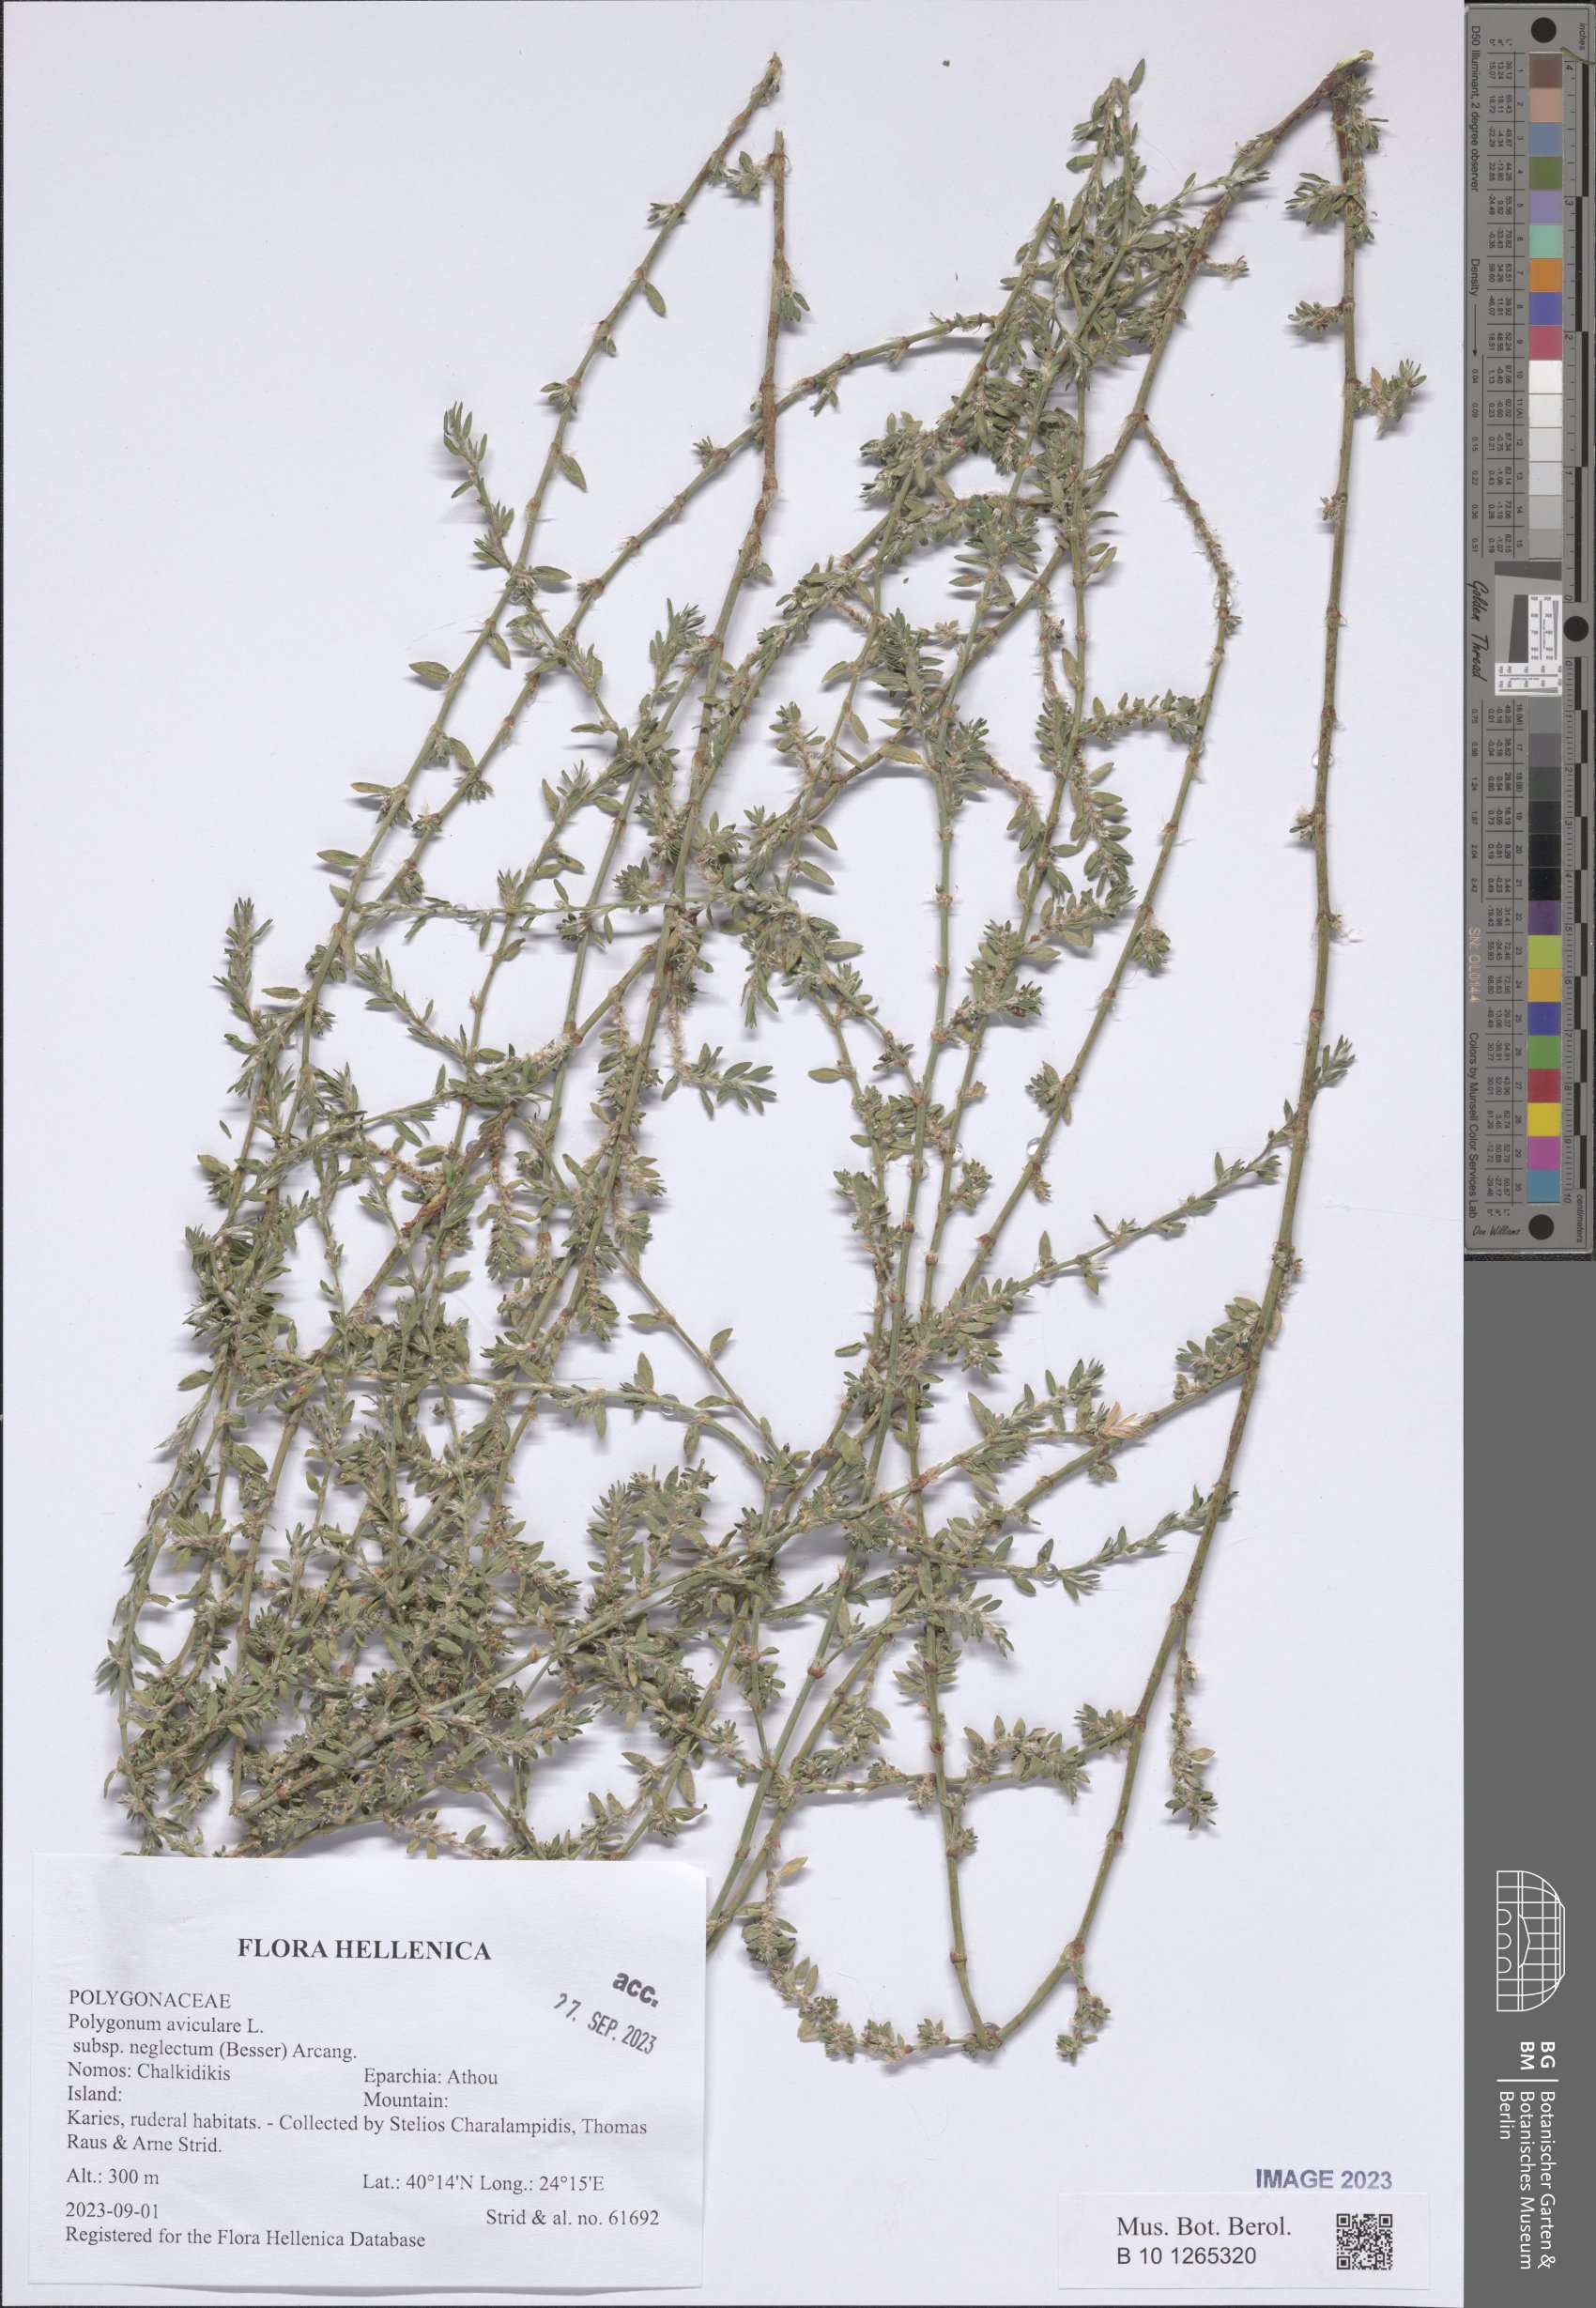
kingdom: Plantae
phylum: Tracheophyta
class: Magnoliopsida
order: Caryophyllales
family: Polygonaceae
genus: Polygonum
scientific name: Polygonum aviculare
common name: Prostrate knotweed
